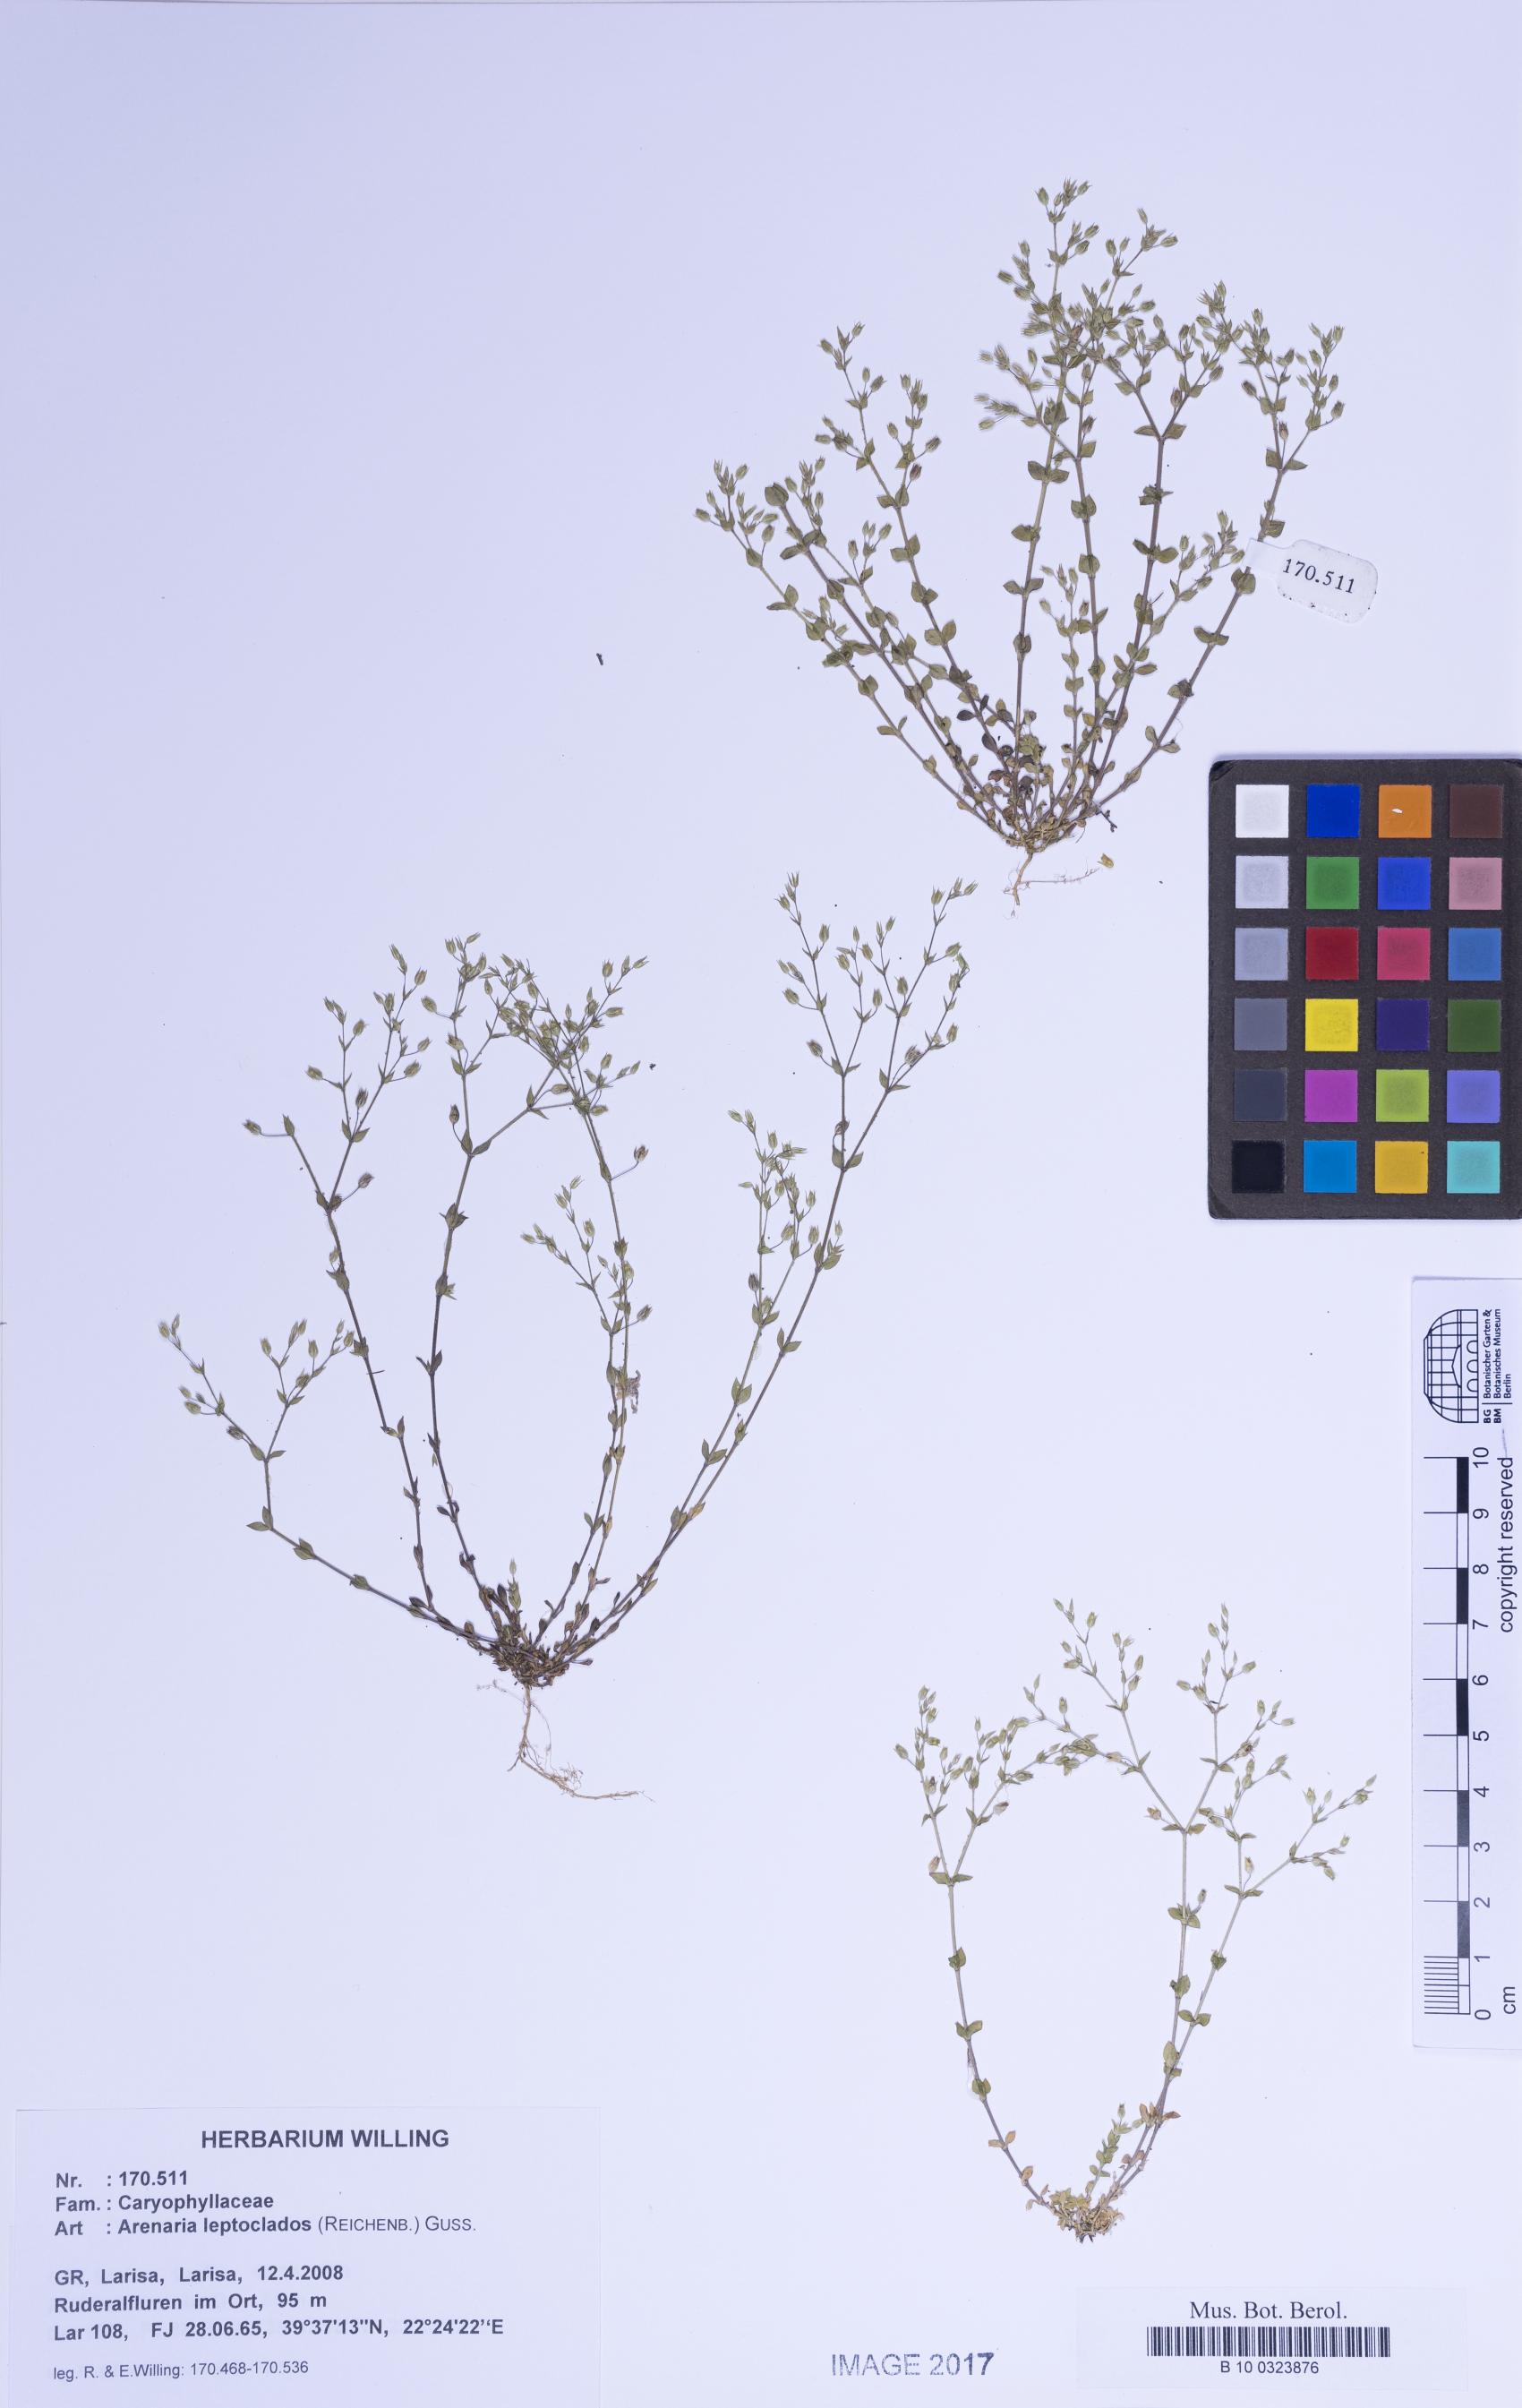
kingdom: Plantae
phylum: Tracheophyta
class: Magnoliopsida
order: Caryophyllales
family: Caryophyllaceae
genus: Arenaria
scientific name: Arenaria leptoclados
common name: Thyme-leaved sandwort
